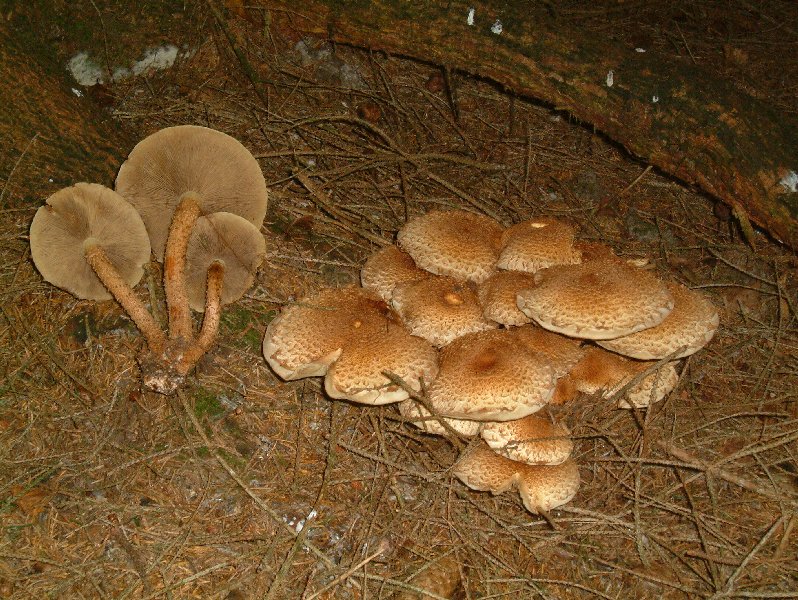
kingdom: Fungi
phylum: Basidiomycota
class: Agaricomycetes
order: Agaricales
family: Strophariaceae
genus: Pholiota
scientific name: Pholiota squarrosa
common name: krumskællet skælhat
